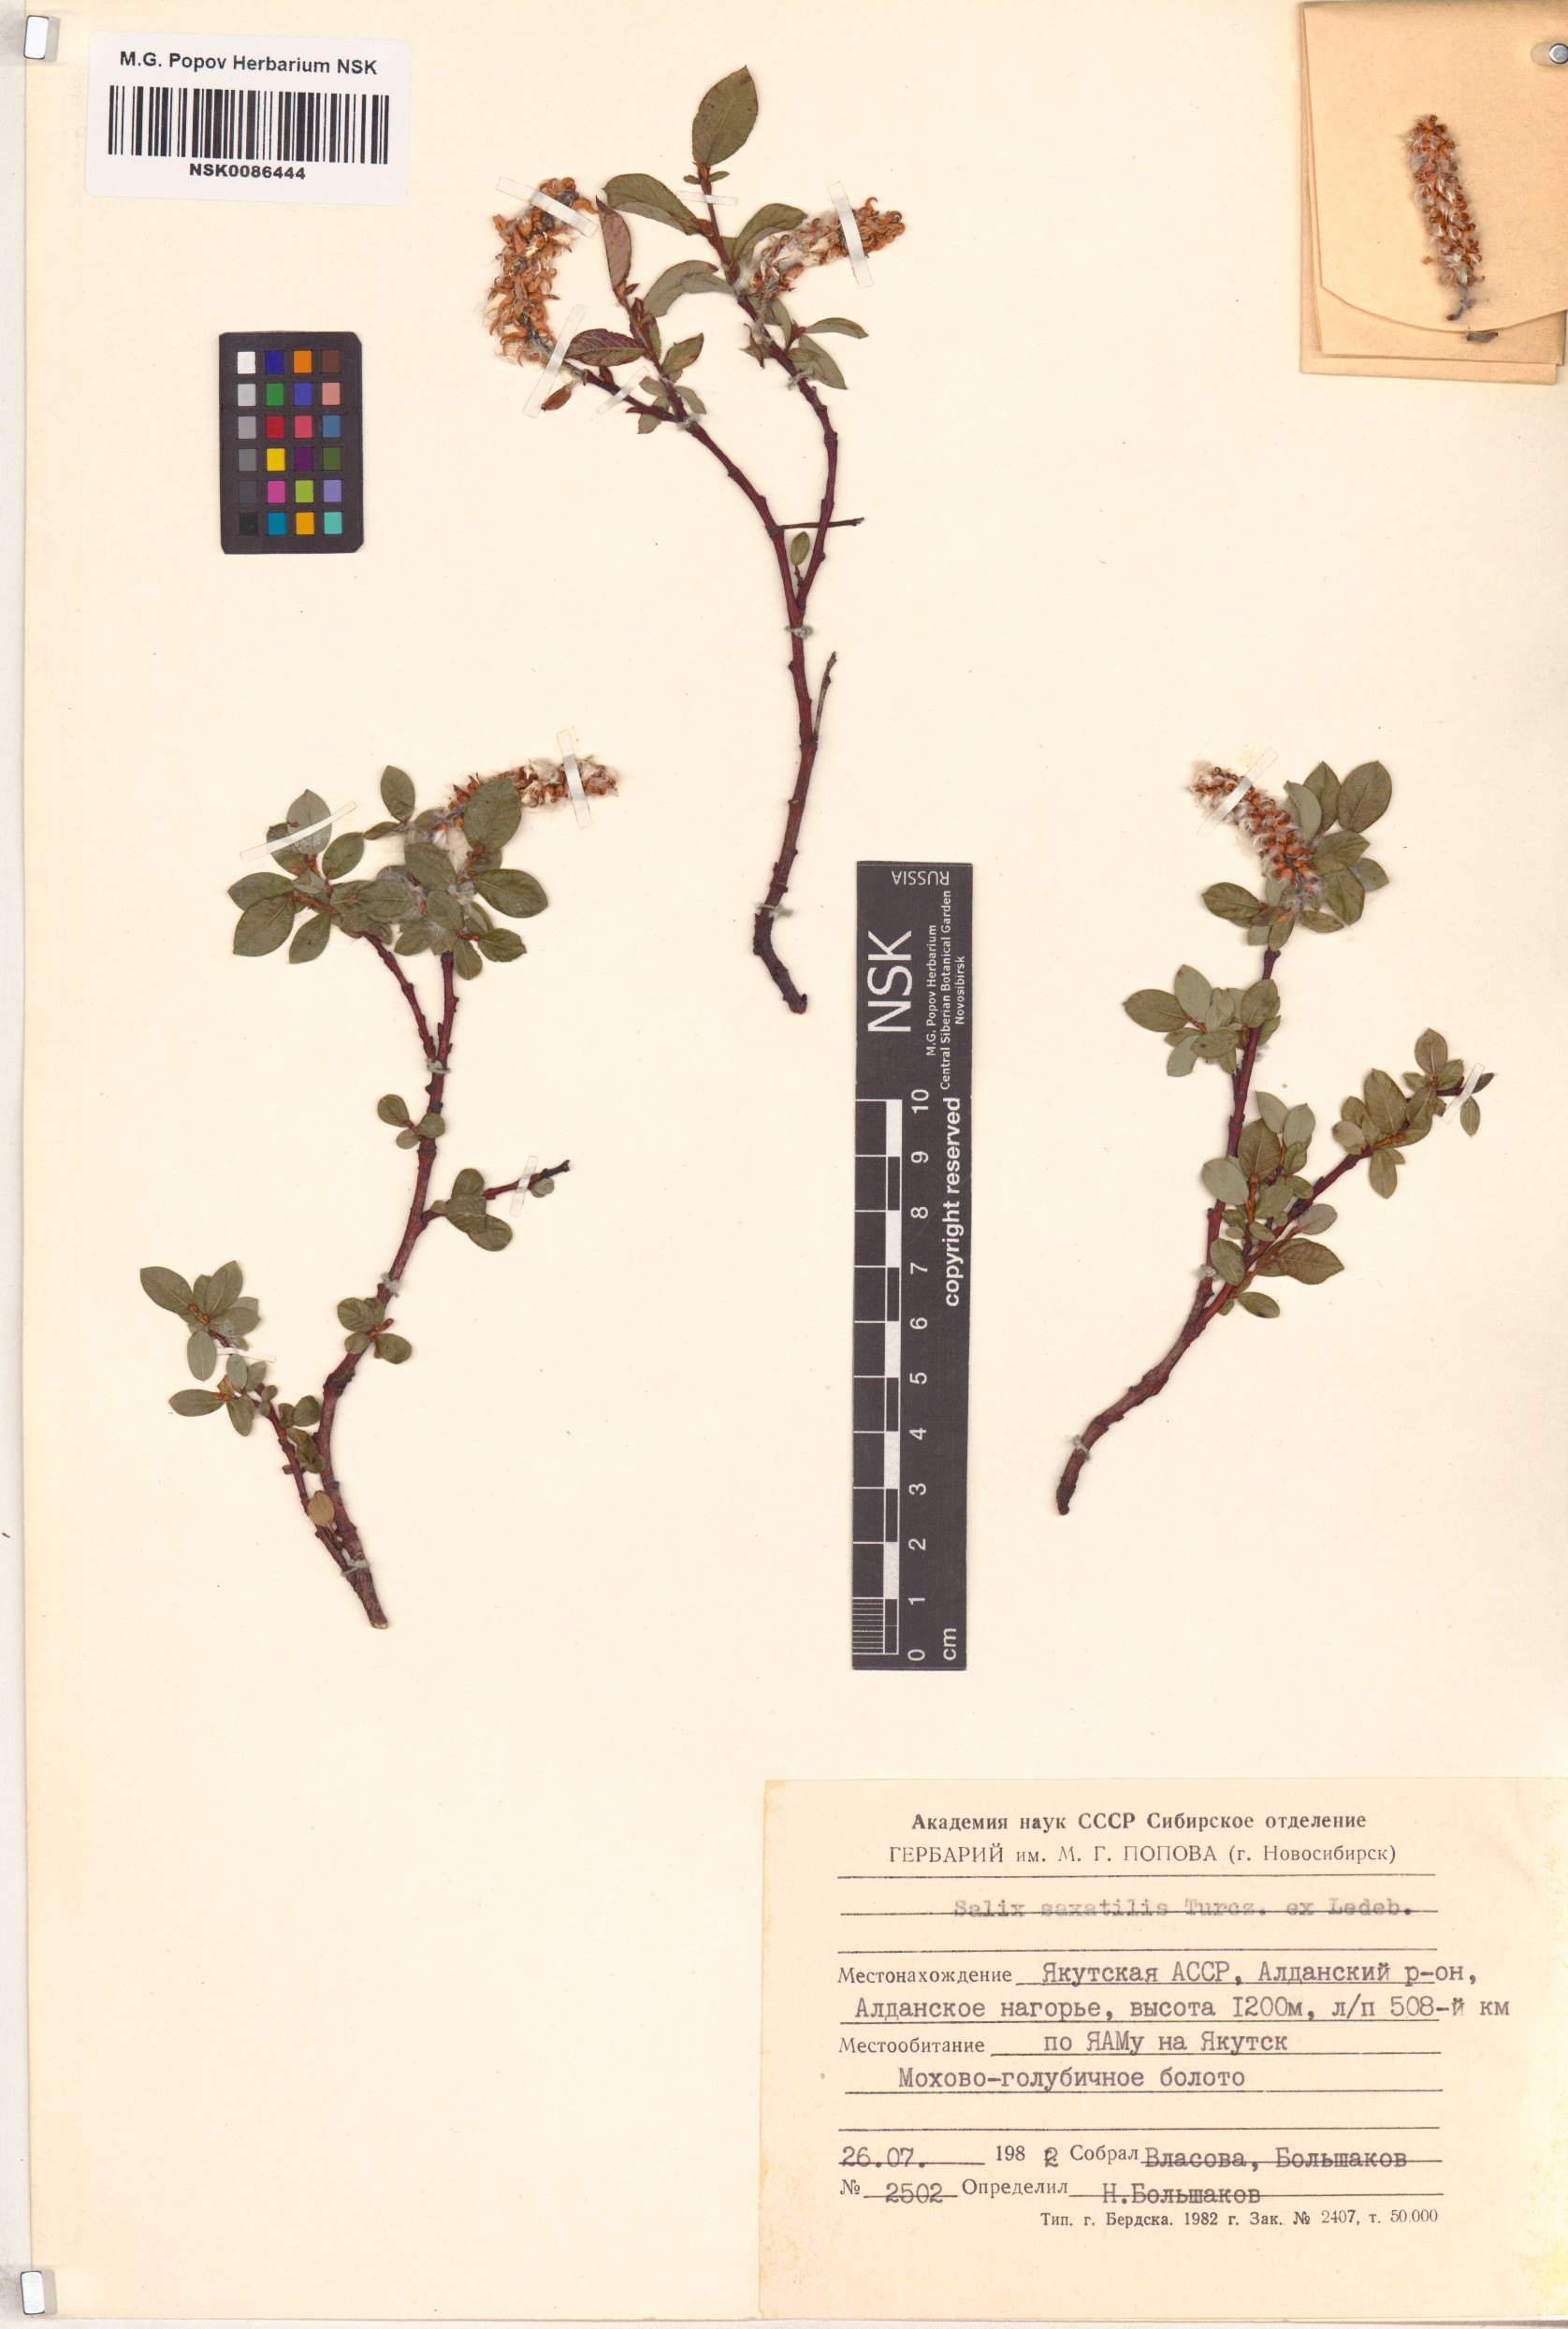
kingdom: Plantae
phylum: Tracheophyta
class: Magnoliopsida
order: Malpighiales
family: Salicaceae
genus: Salix
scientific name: Salix saxatilis
